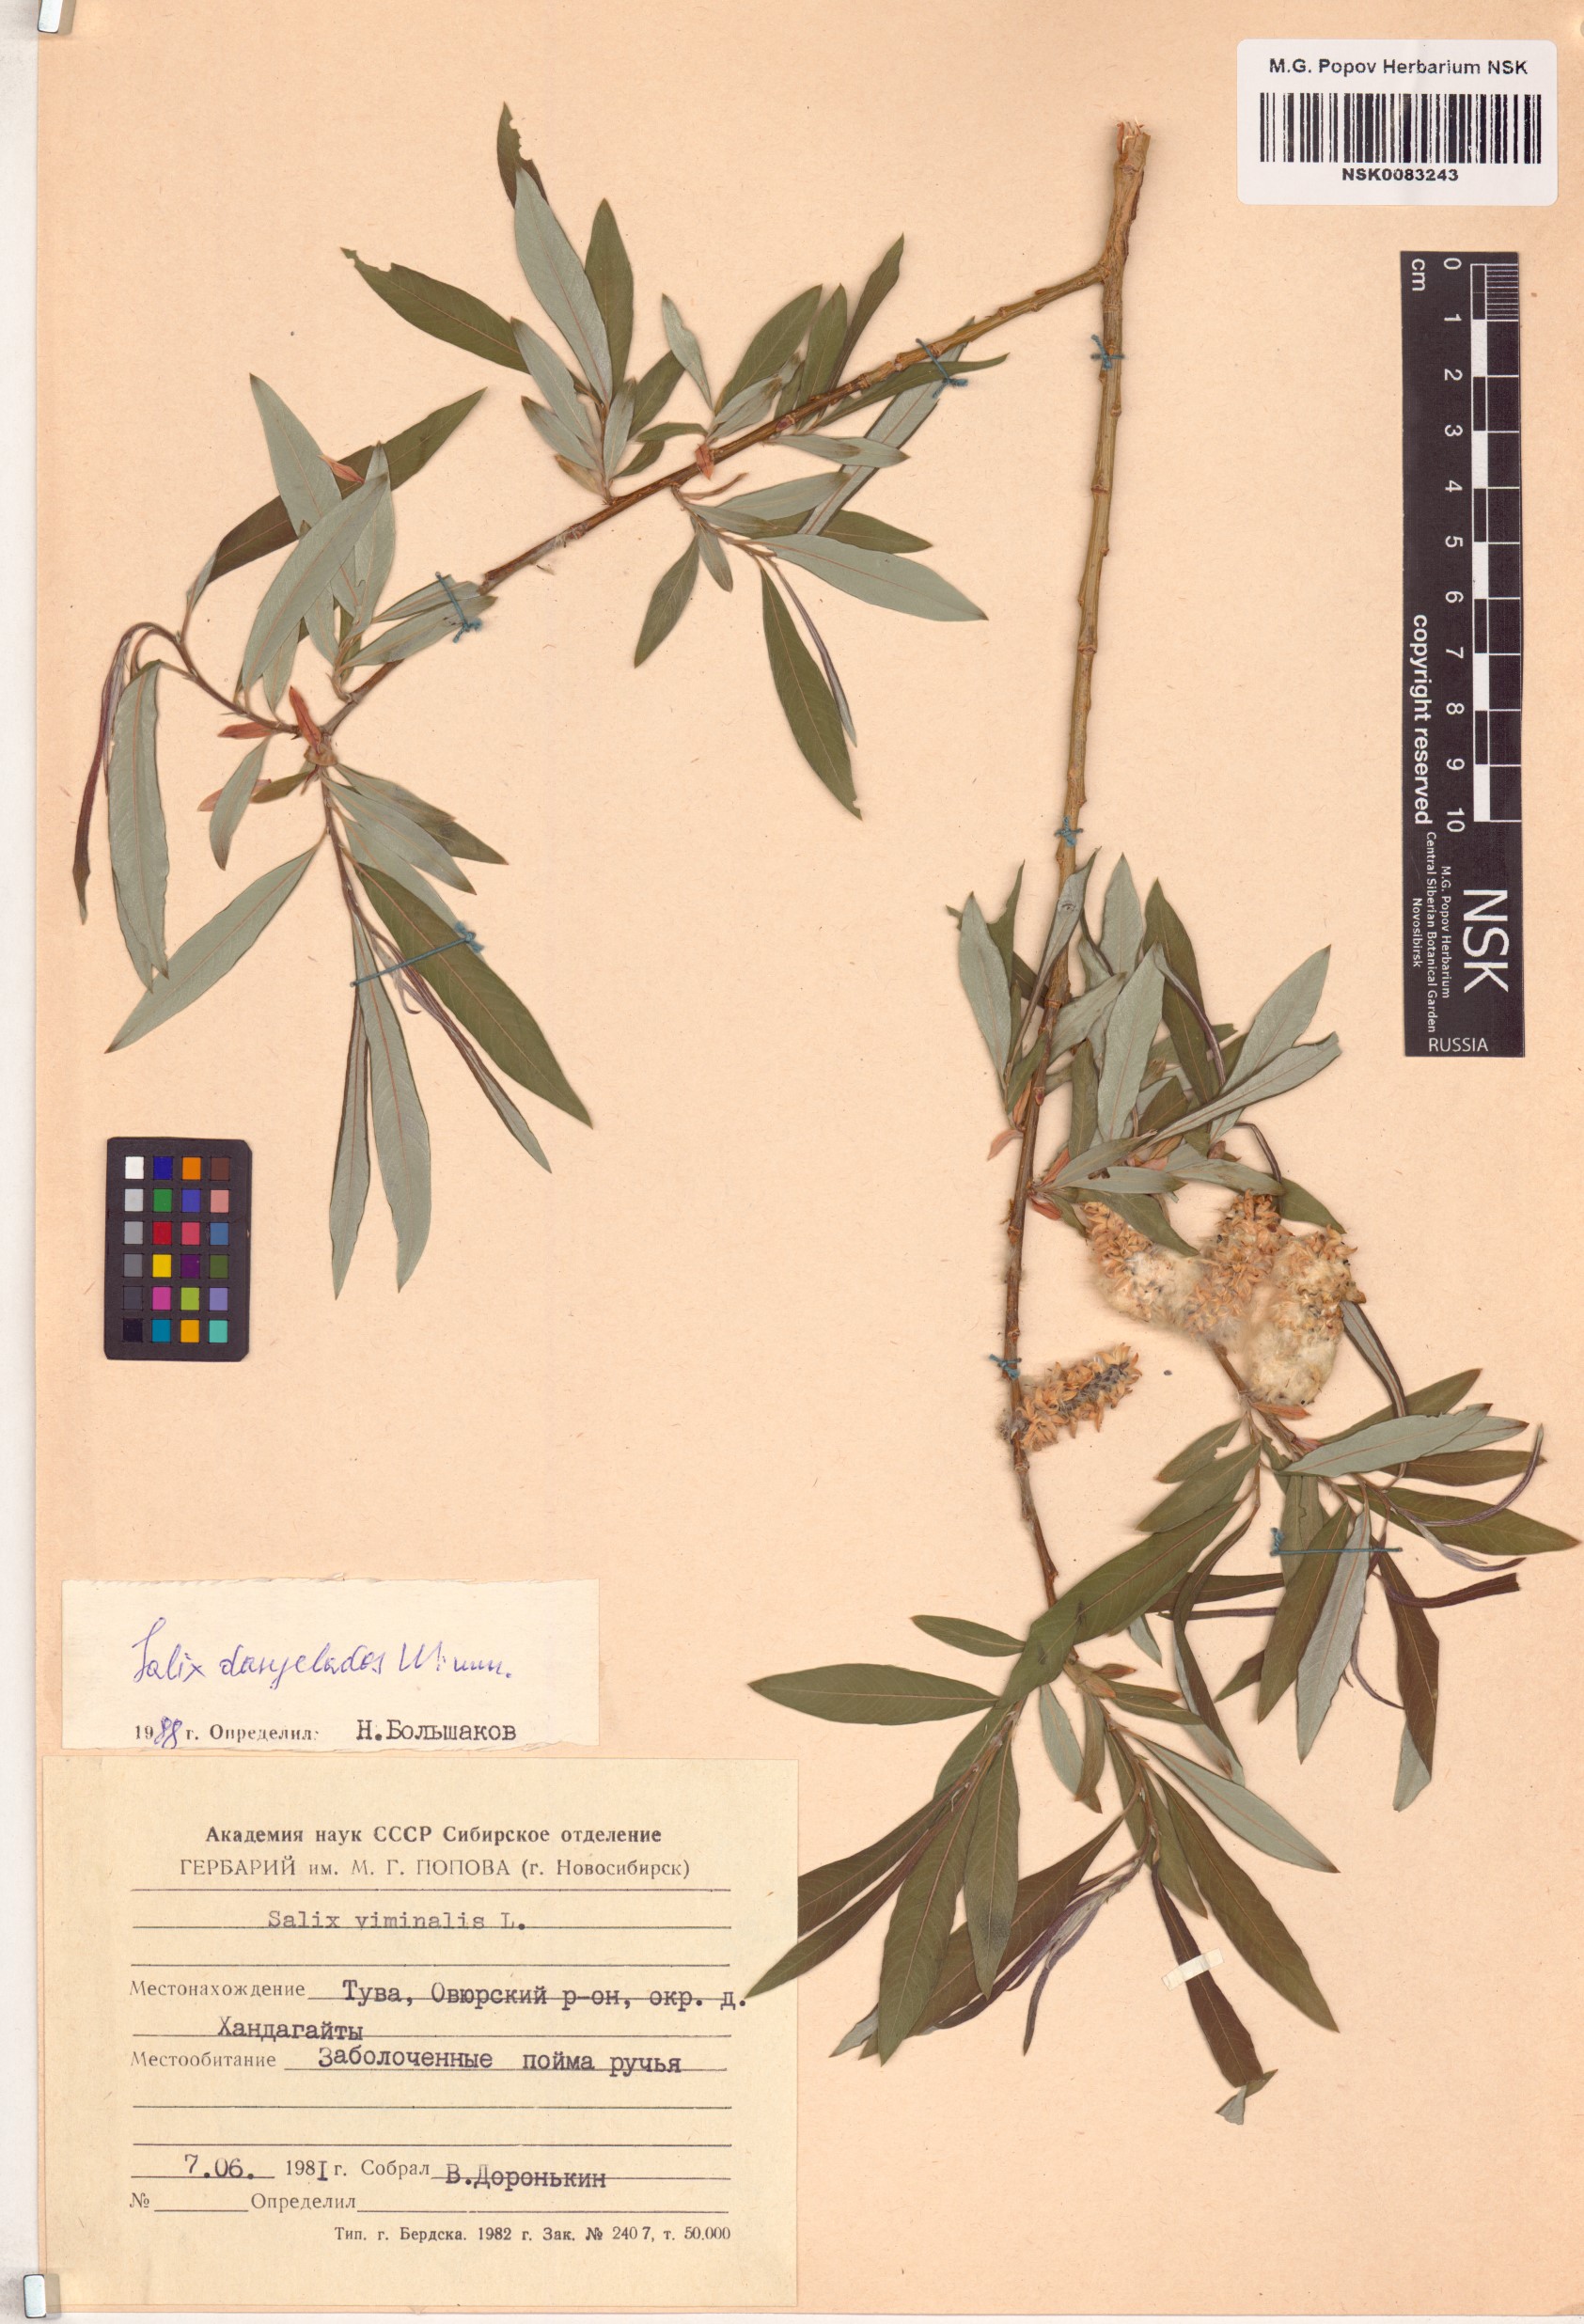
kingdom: Plantae
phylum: Tracheophyta
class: Magnoliopsida
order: Malpighiales
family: Salicaceae
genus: Salix
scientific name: Salix gmelinii
